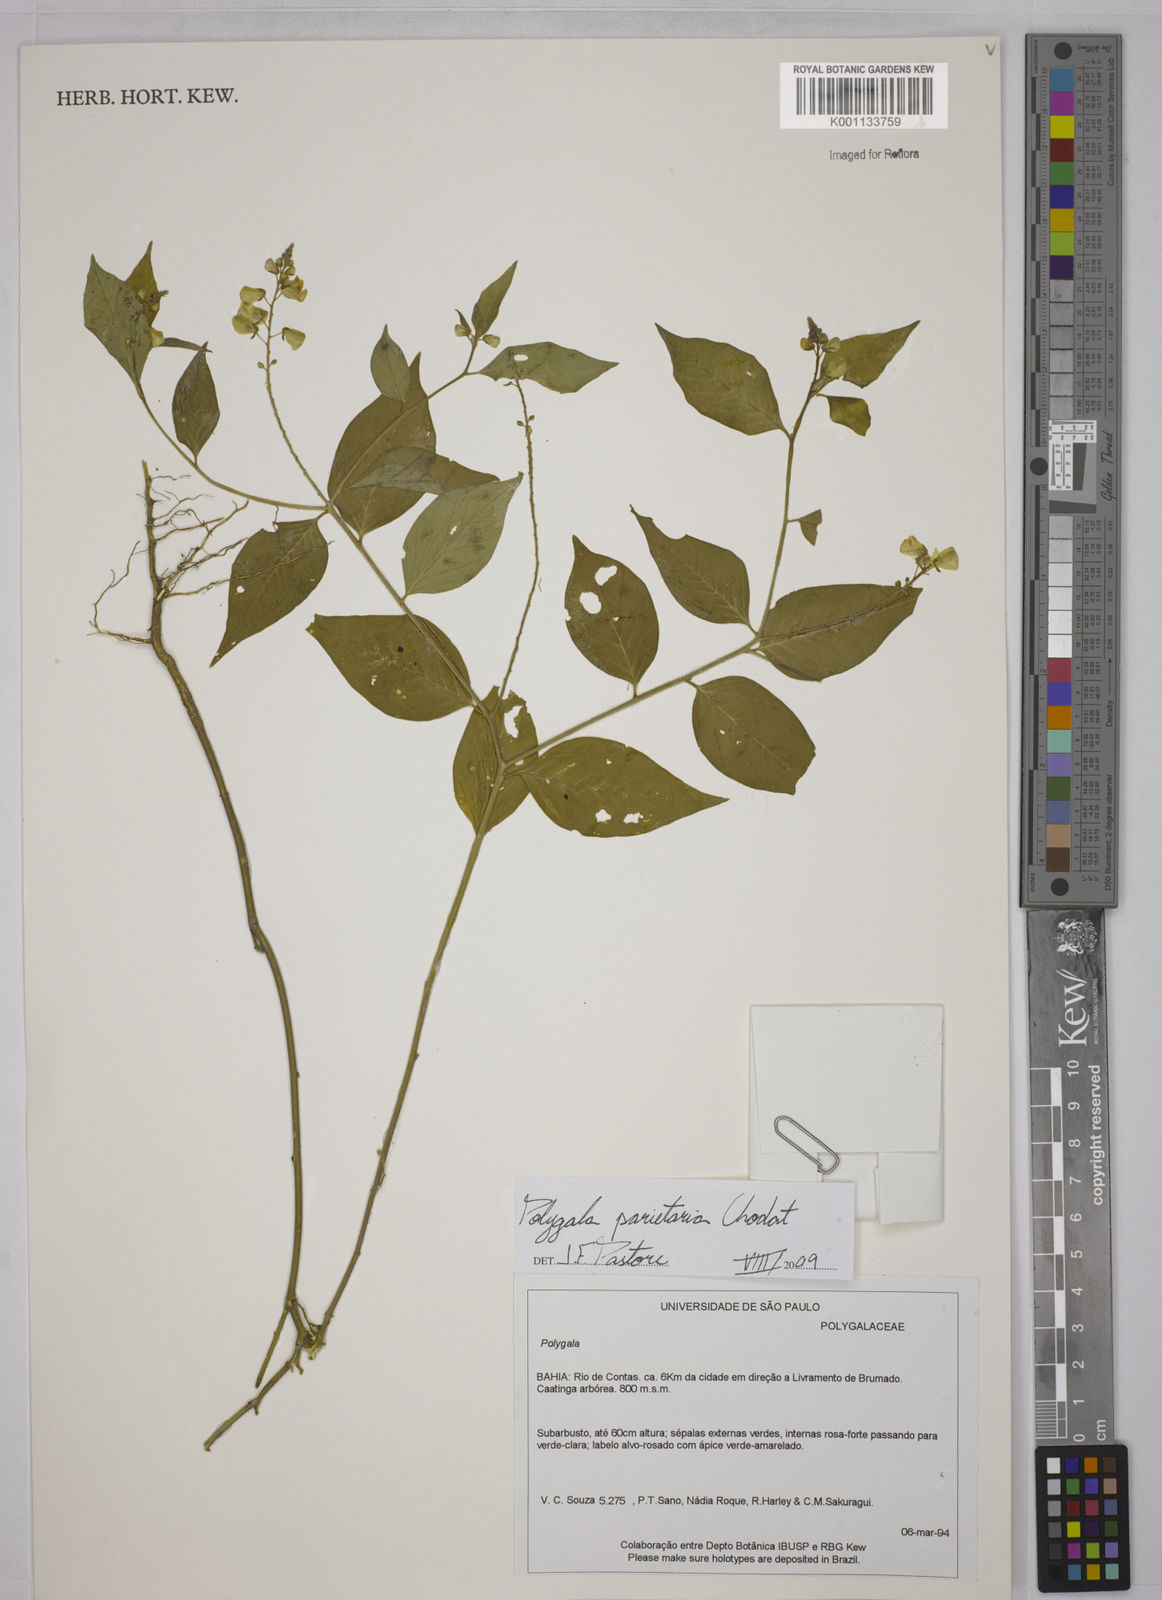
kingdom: Plantae
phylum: Tracheophyta
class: Magnoliopsida
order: Fabales
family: Polygalaceae
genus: Asemeia
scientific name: Asemeia parietaria
